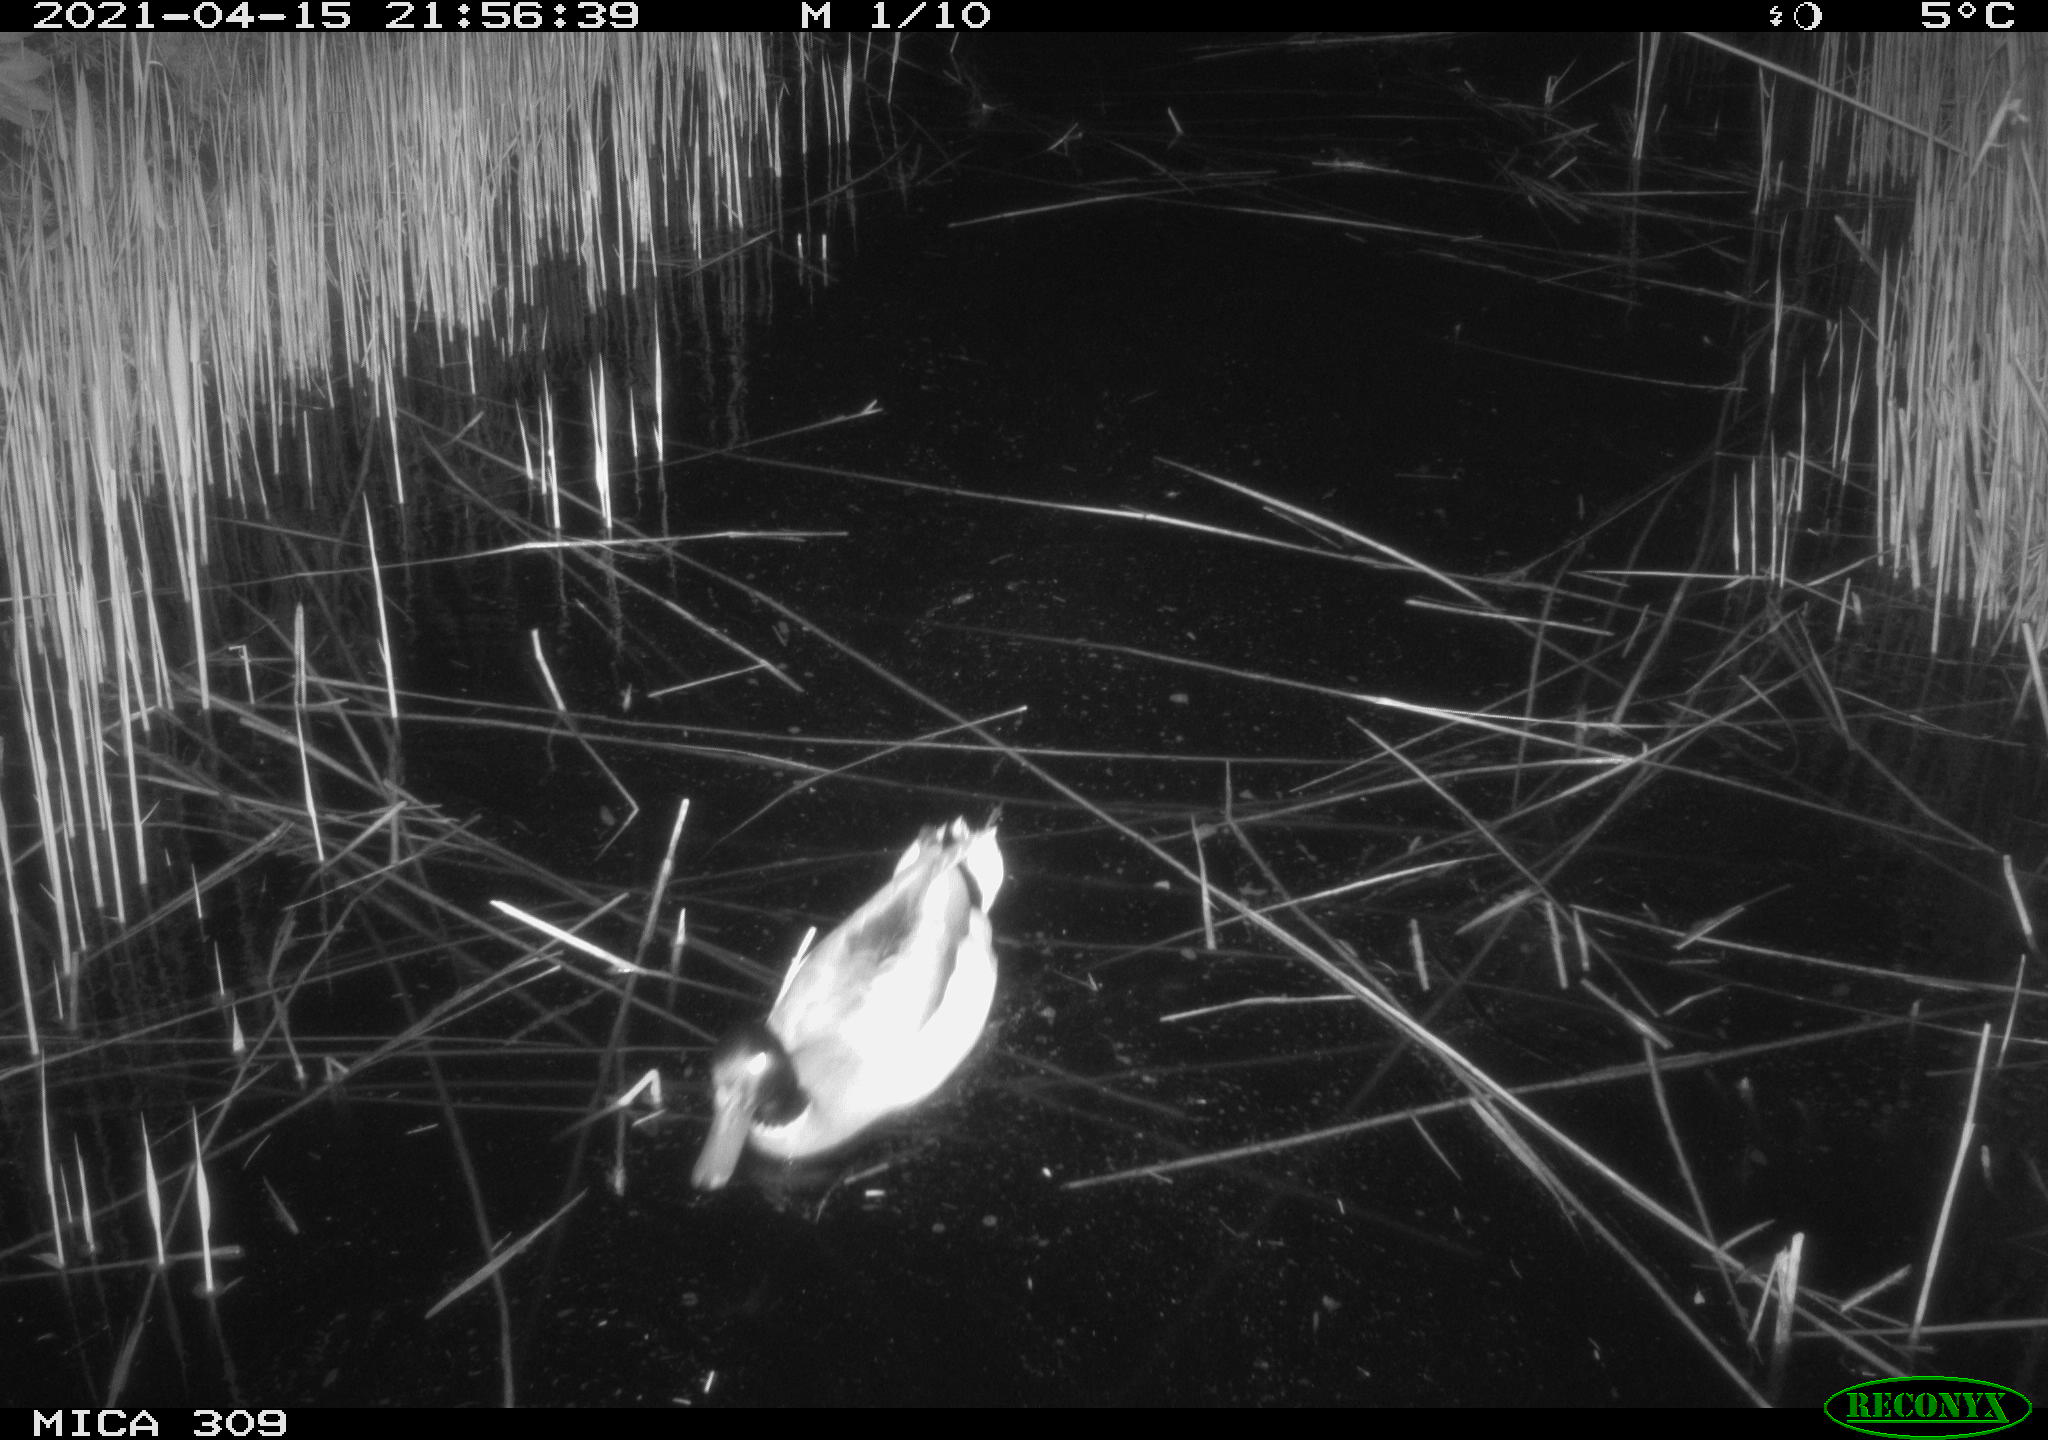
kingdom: Animalia
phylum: Chordata
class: Aves
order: Anseriformes
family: Anatidae
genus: Anas
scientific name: Anas platyrhynchos
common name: Mallard
